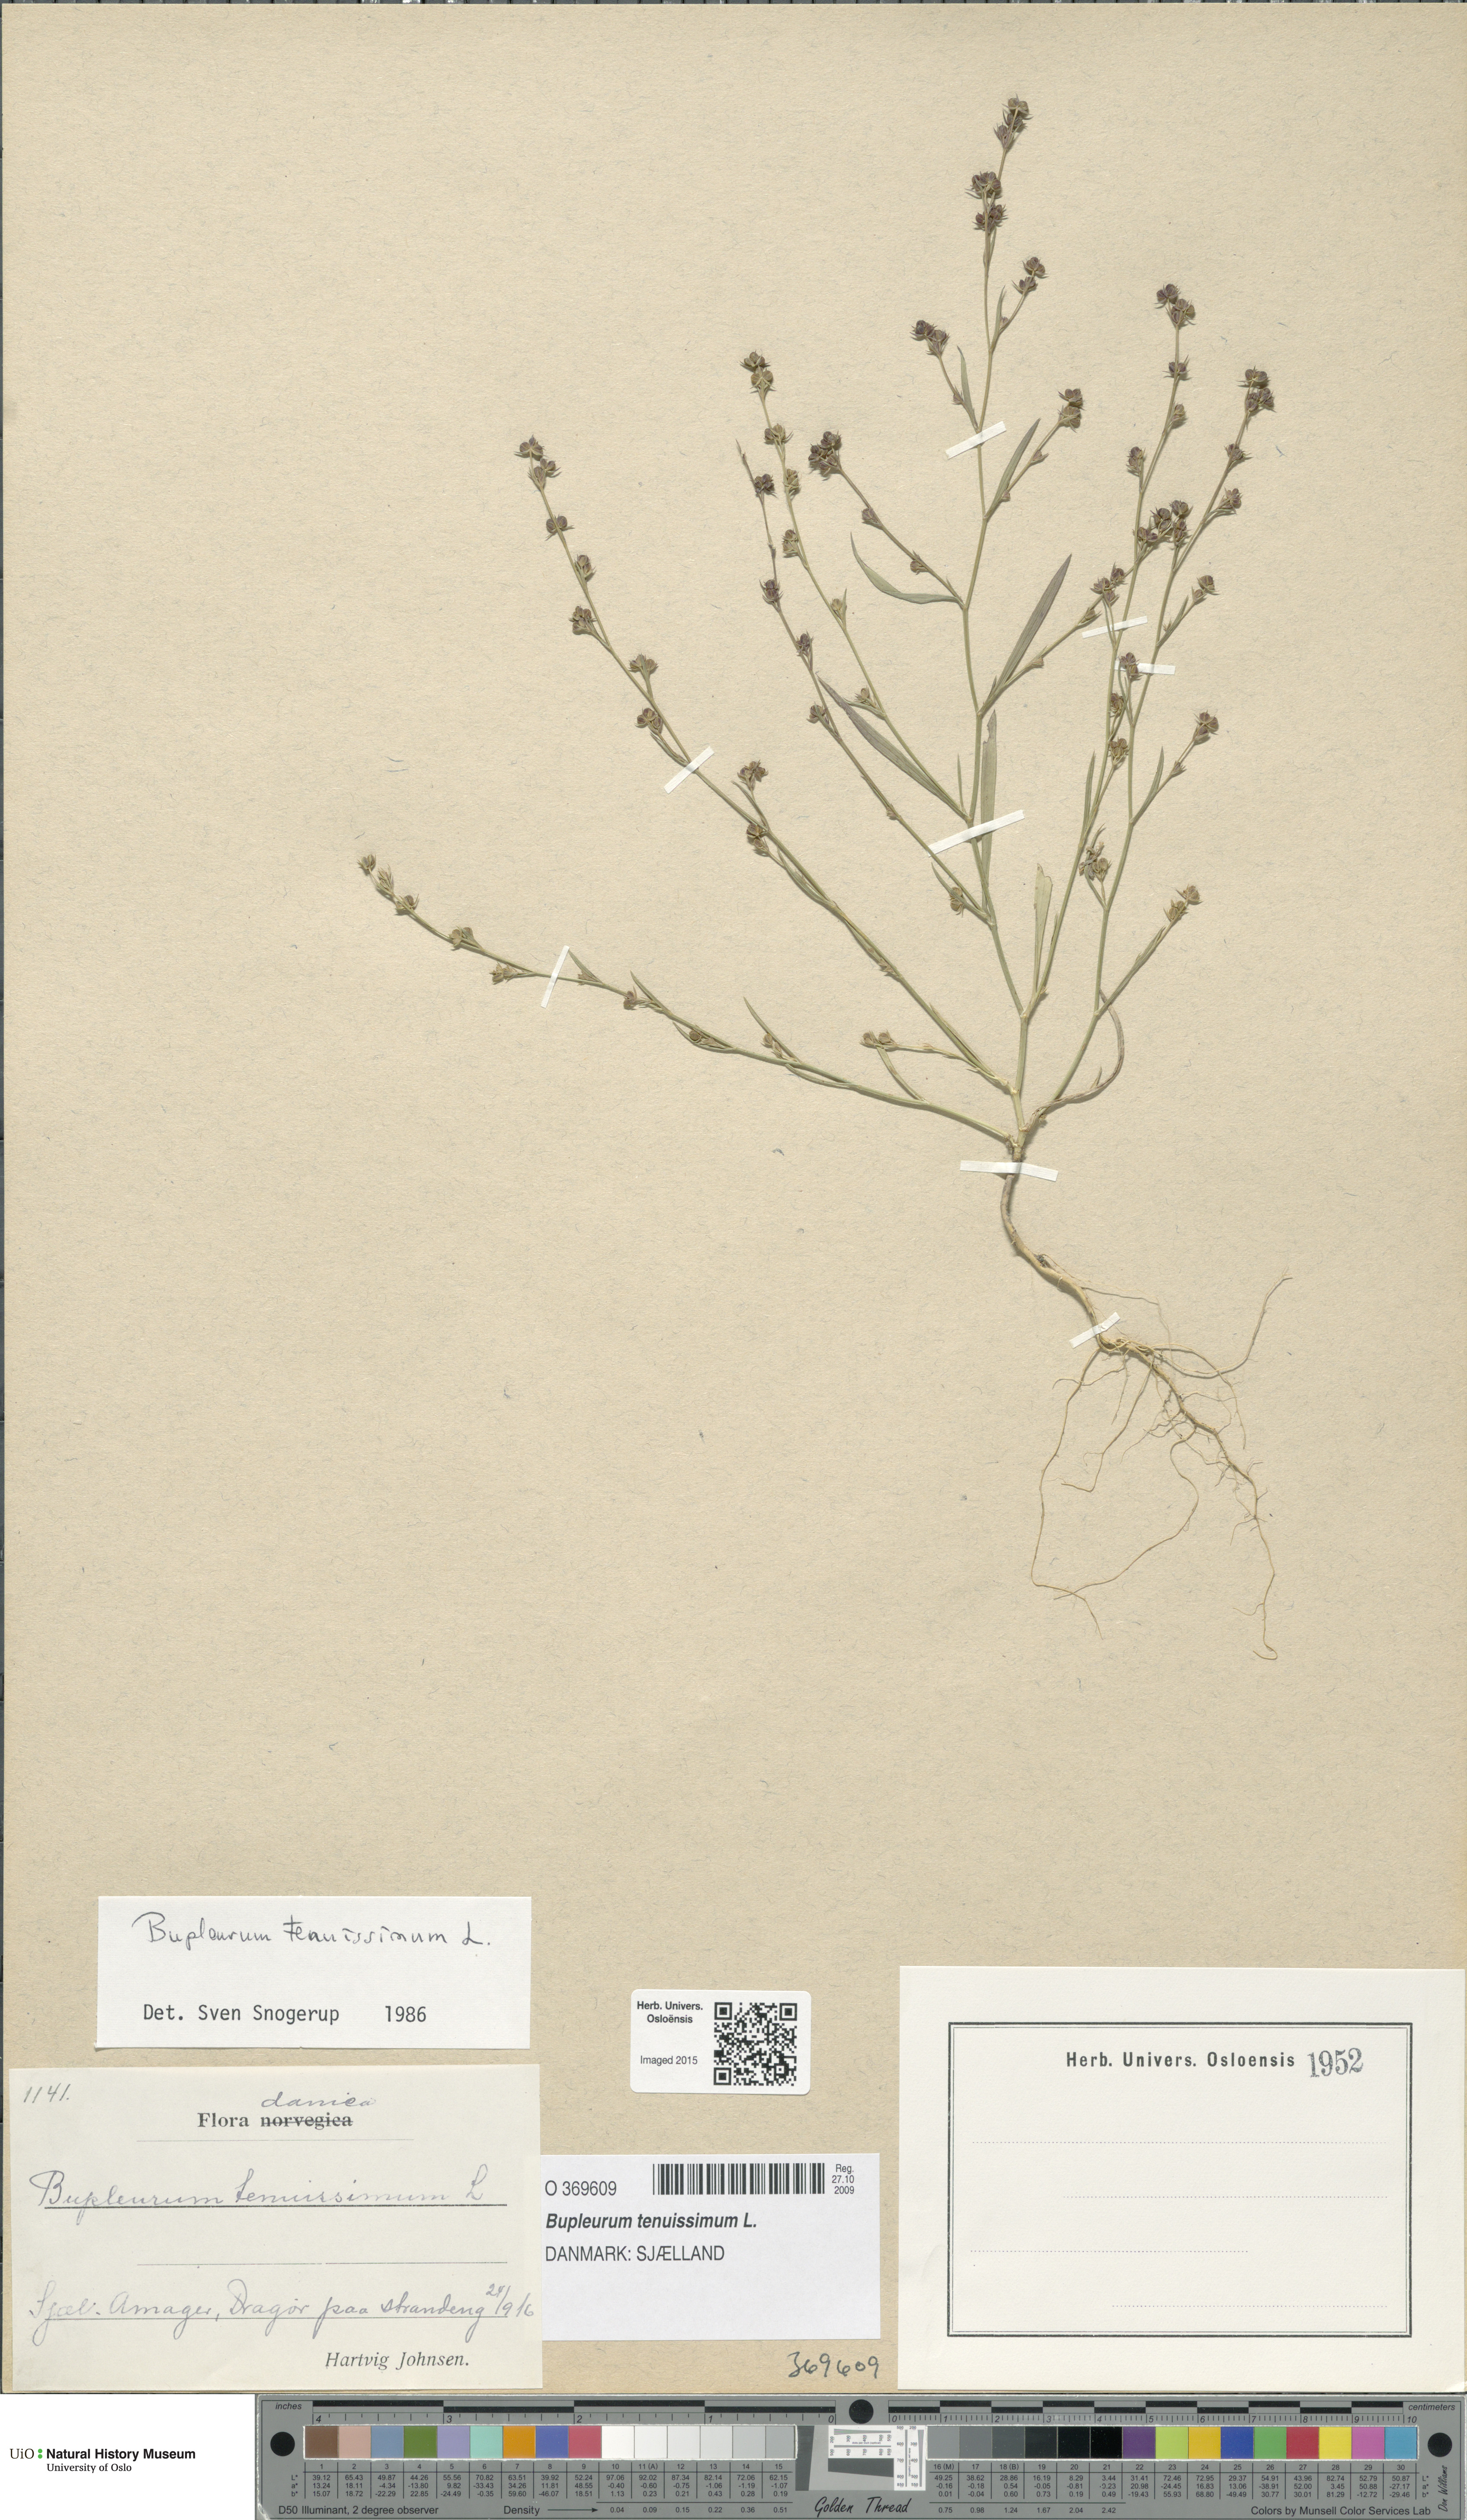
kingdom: Plantae
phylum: Tracheophyta
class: Magnoliopsida
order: Apiales
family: Apiaceae
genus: Bupleurum
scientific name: Bupleurum tenuissimum
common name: Slender hare's-ear
